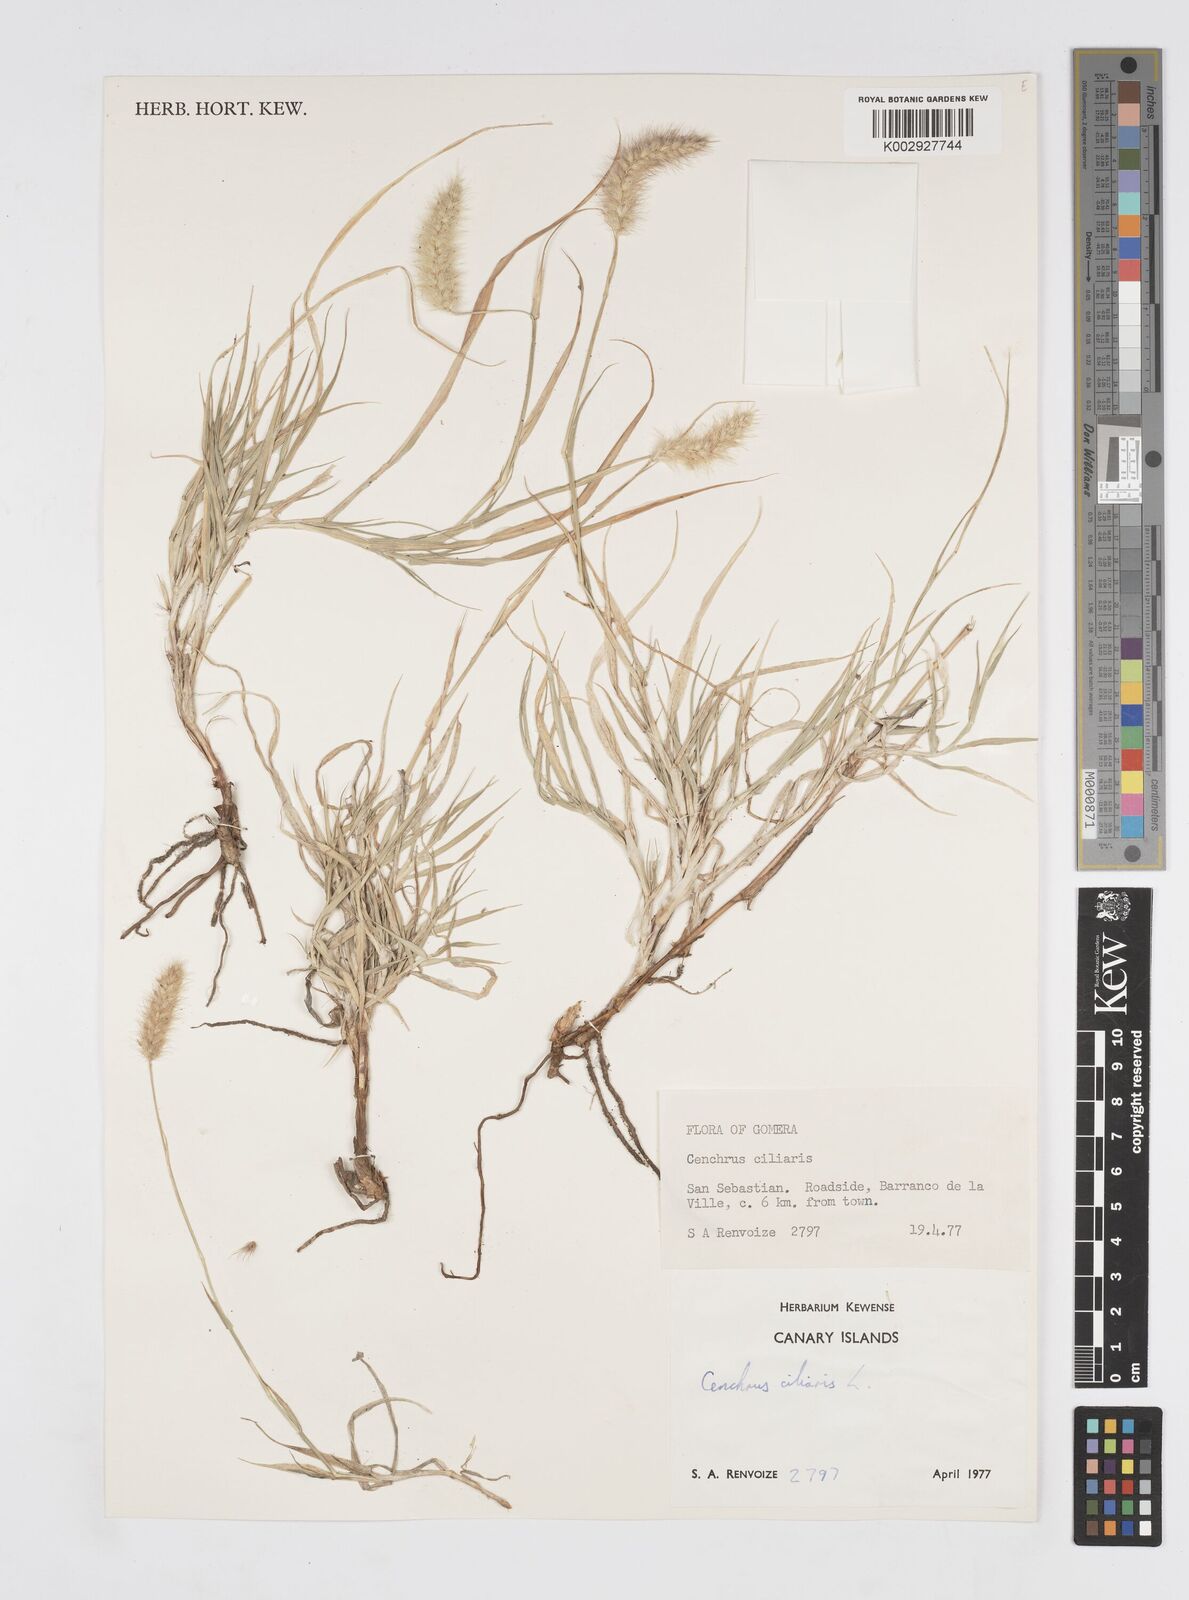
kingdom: Plantae
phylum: Tracheophyta
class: Liliopsida
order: Poales
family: Poaceae
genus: Cenchrus
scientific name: Cenchrus ciliaris
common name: Buffelgrass
